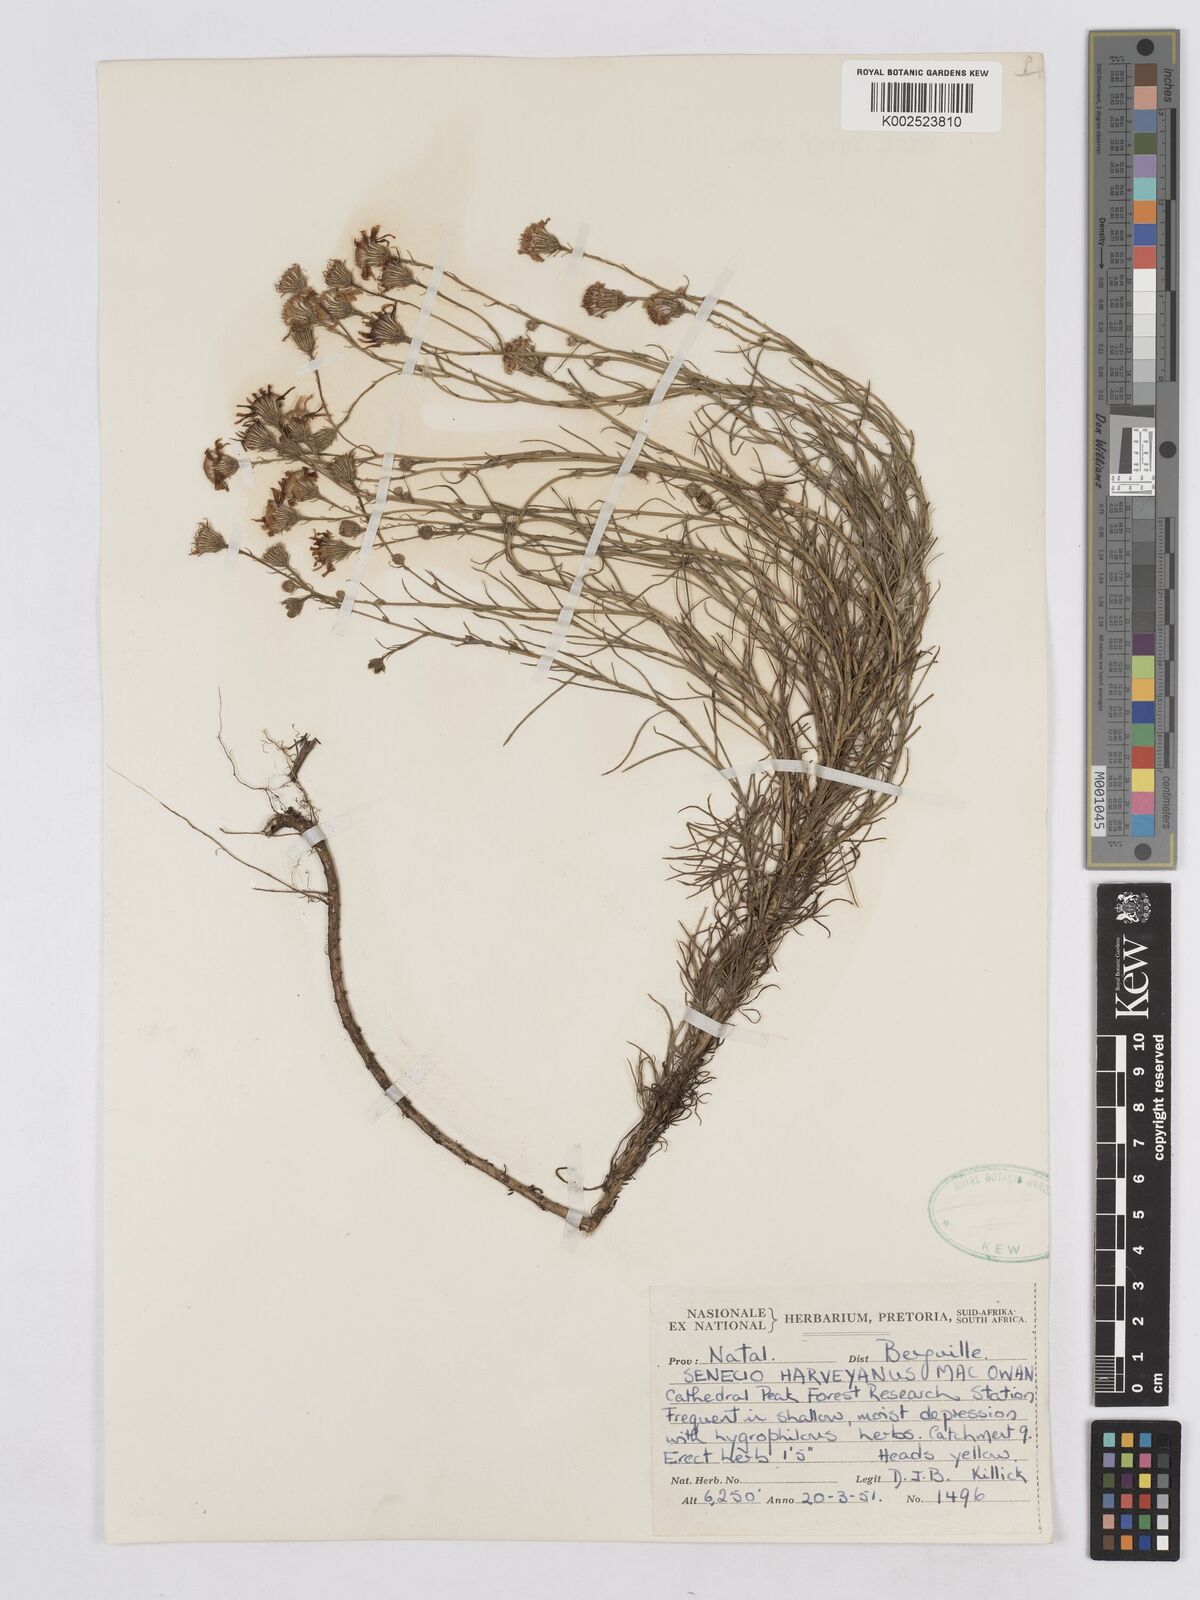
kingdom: Plantae
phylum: Tracheophyta
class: Magnoliopsida
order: Asterales
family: Asteraceae
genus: Senecio
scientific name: Senecio harveyanus
